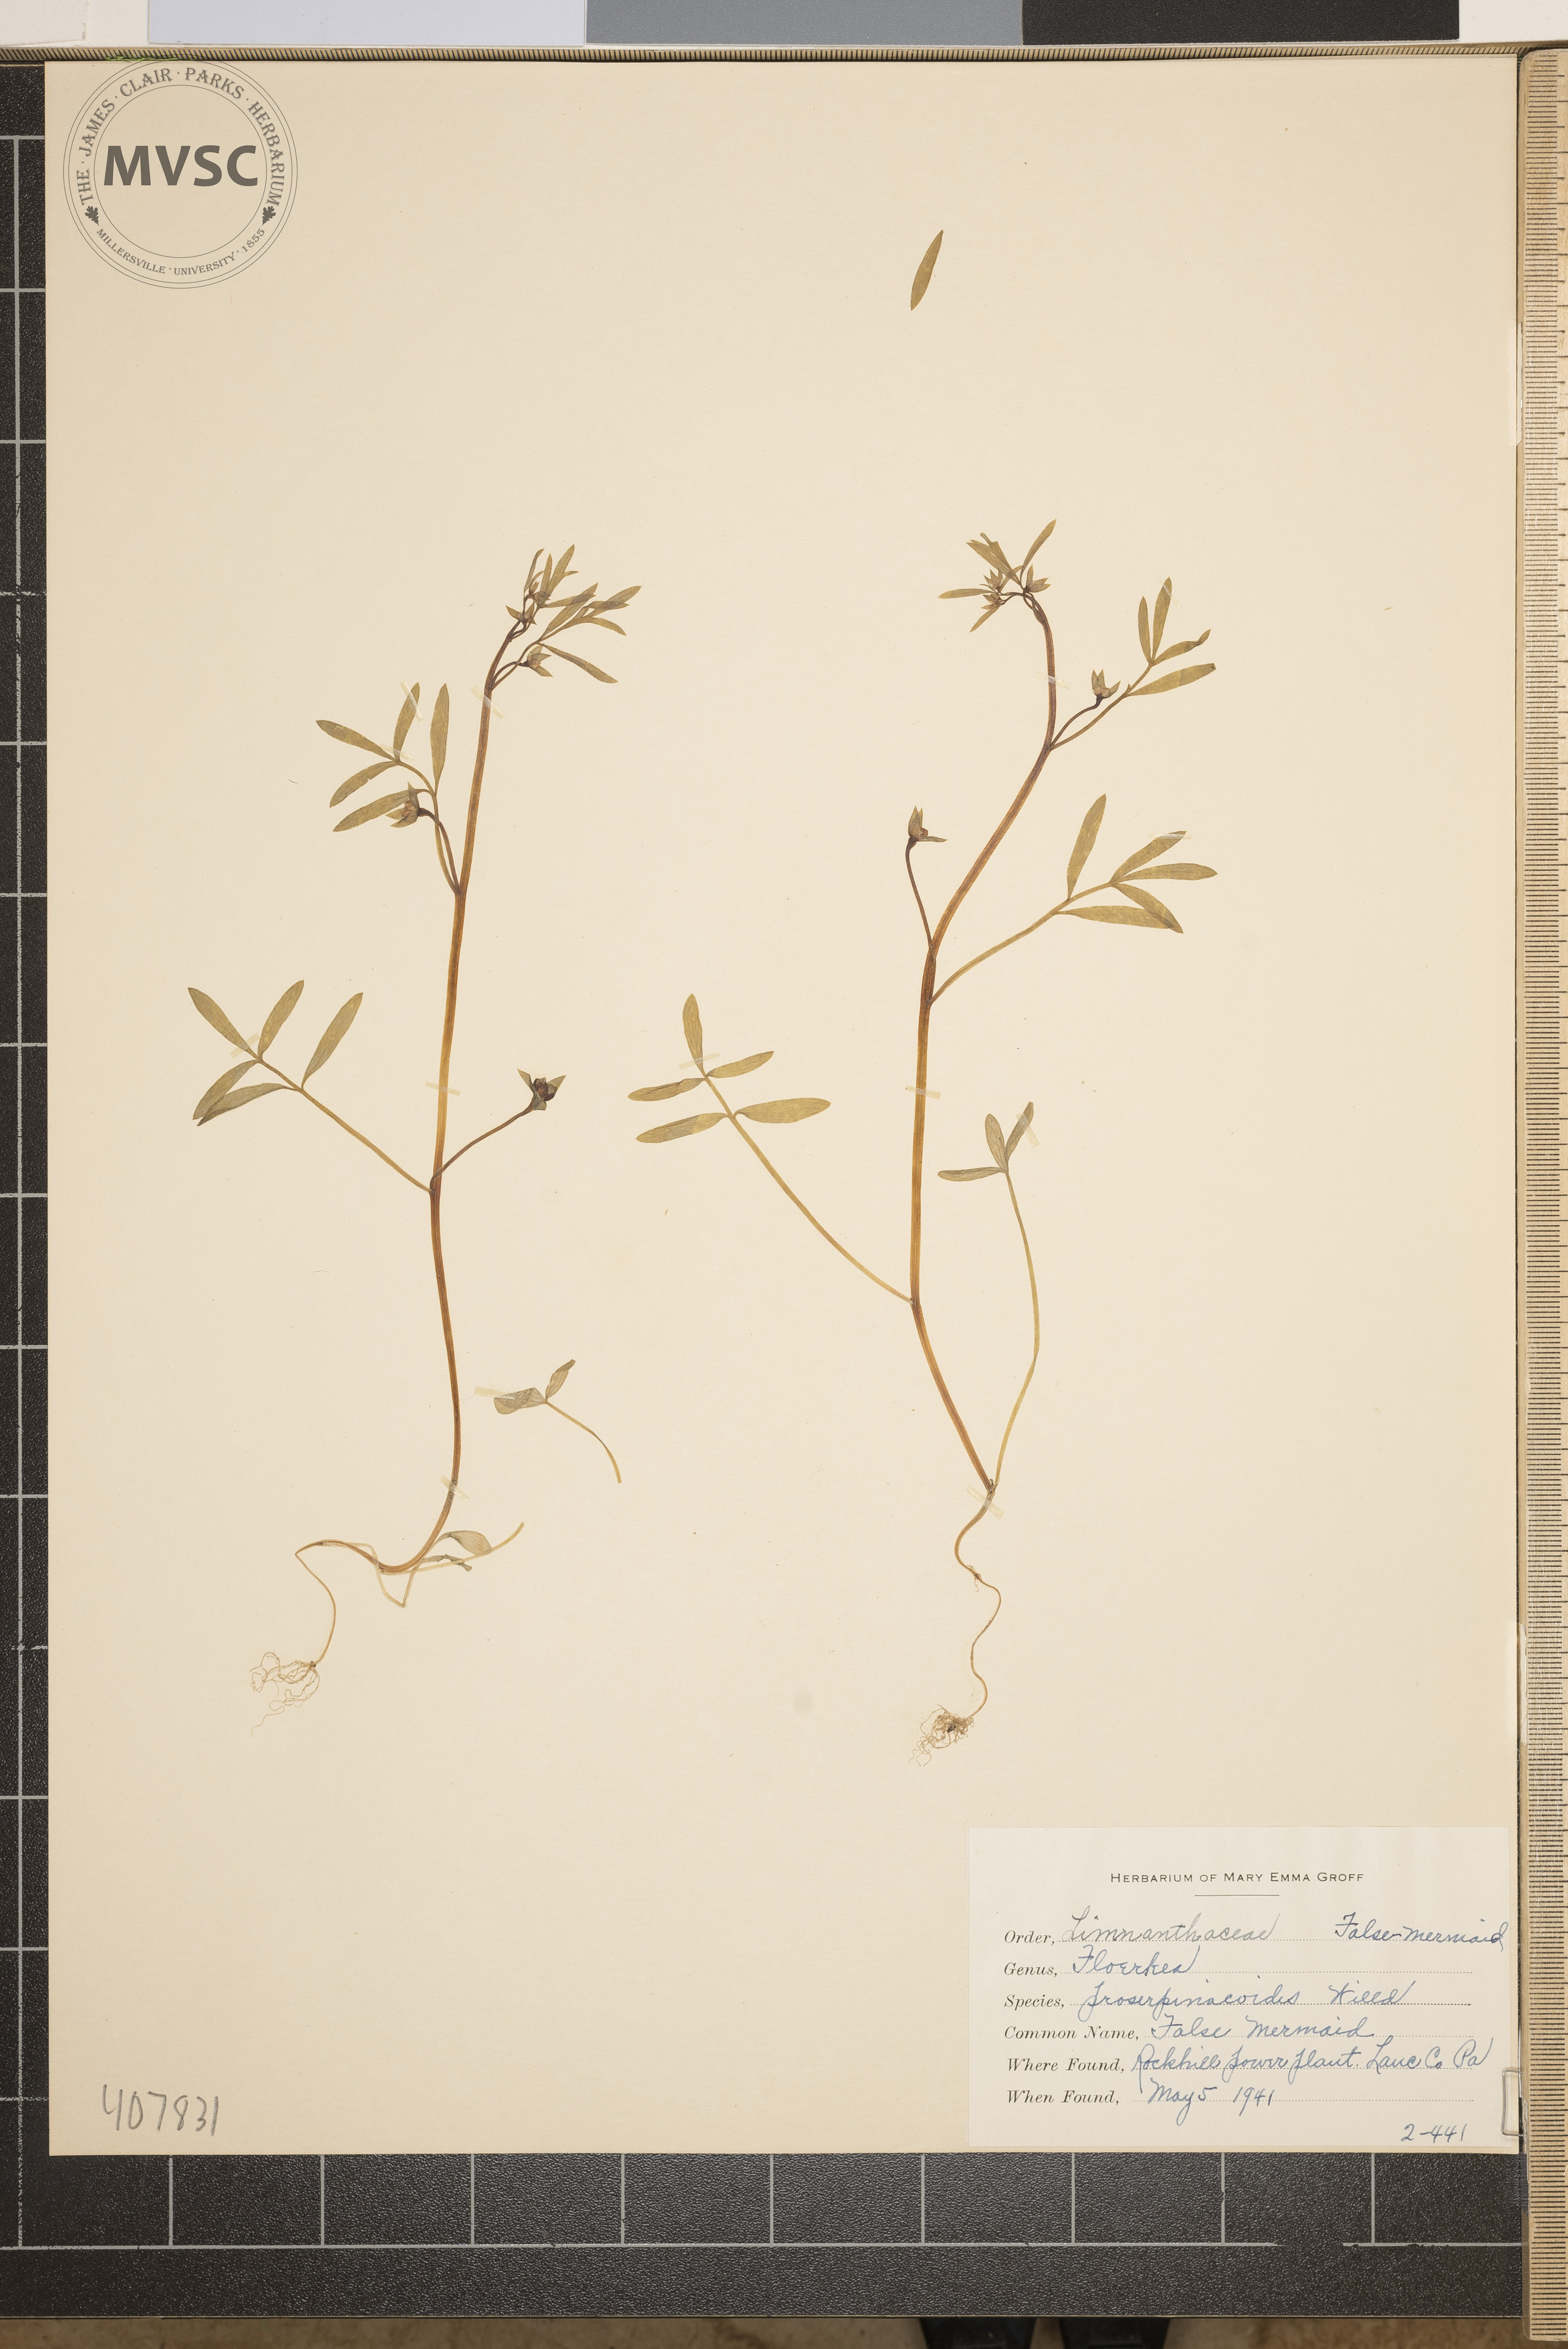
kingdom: Plantae
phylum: Tracheophyta
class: Magnoliopsida
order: Brassicales
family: Limnanthaceae
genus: Floerkea
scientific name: Floerkea proserpinacoides
